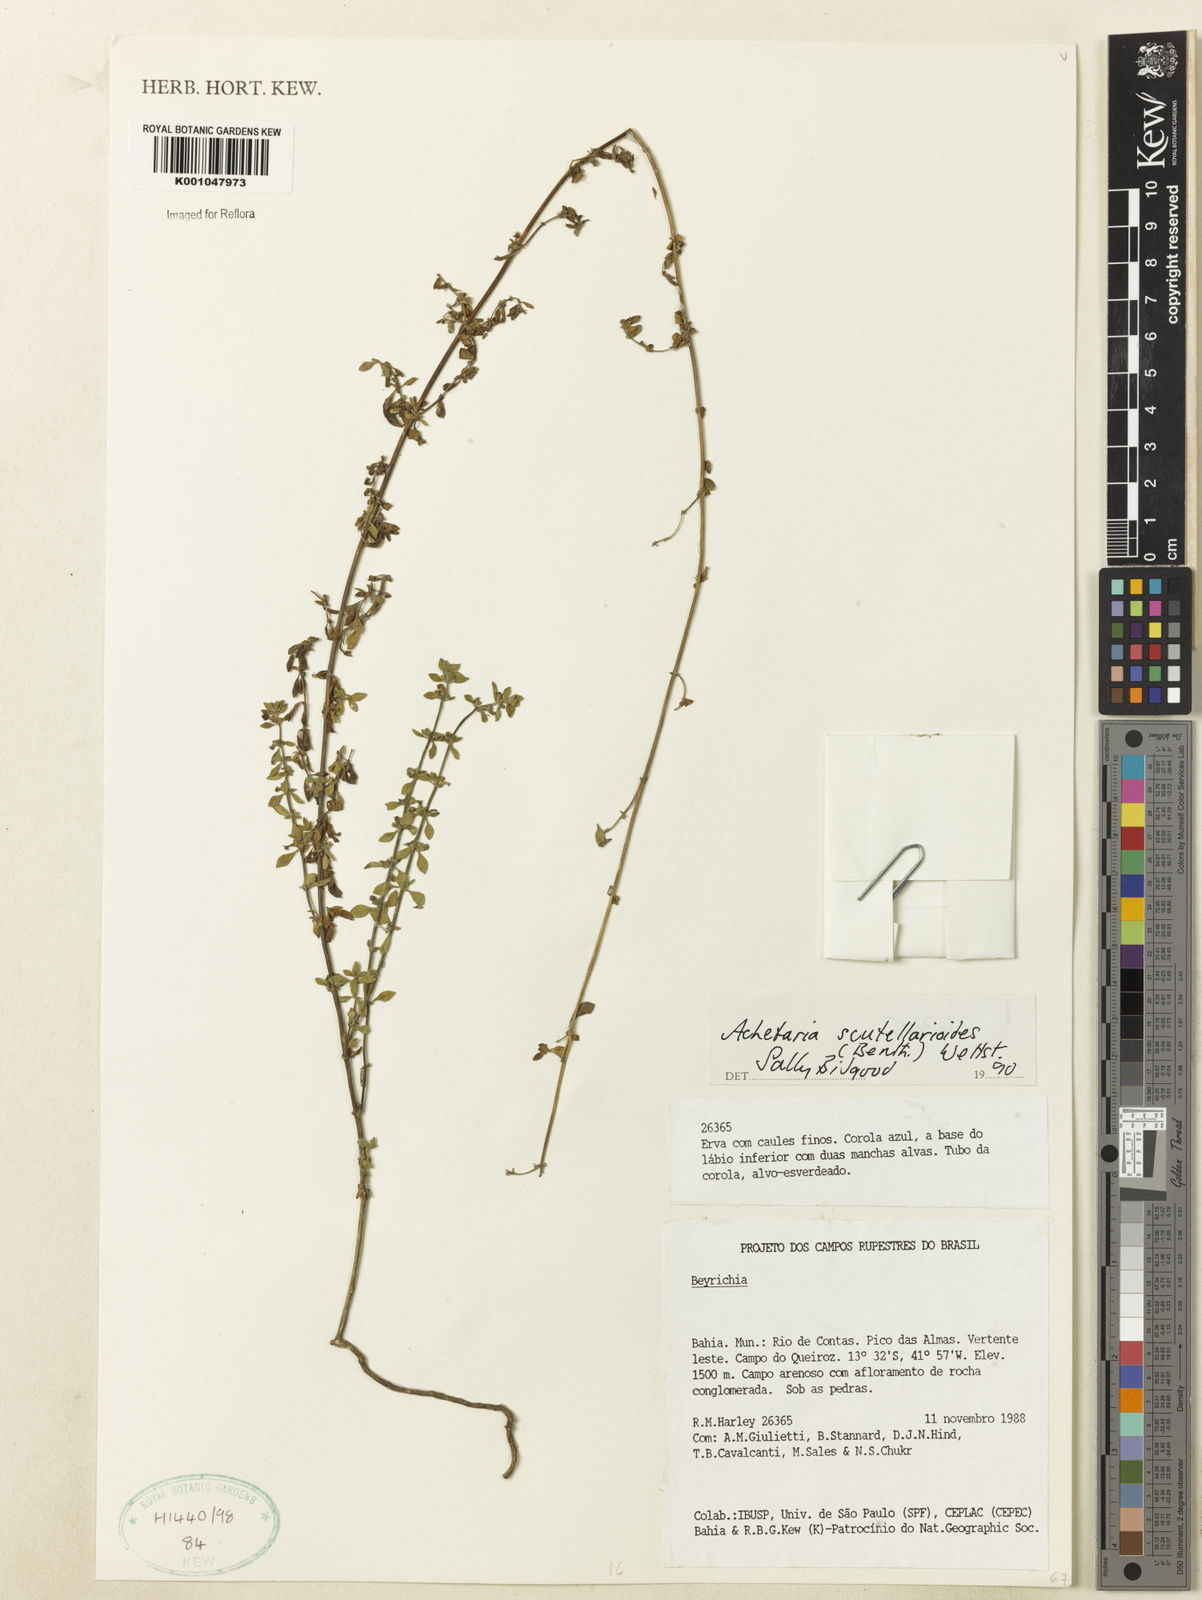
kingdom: Plantae
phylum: Tracheophyta
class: Magnoliopsida
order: Lamiales
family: Plantaginaceae
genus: Matourea
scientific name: Matourea scutellarioides
